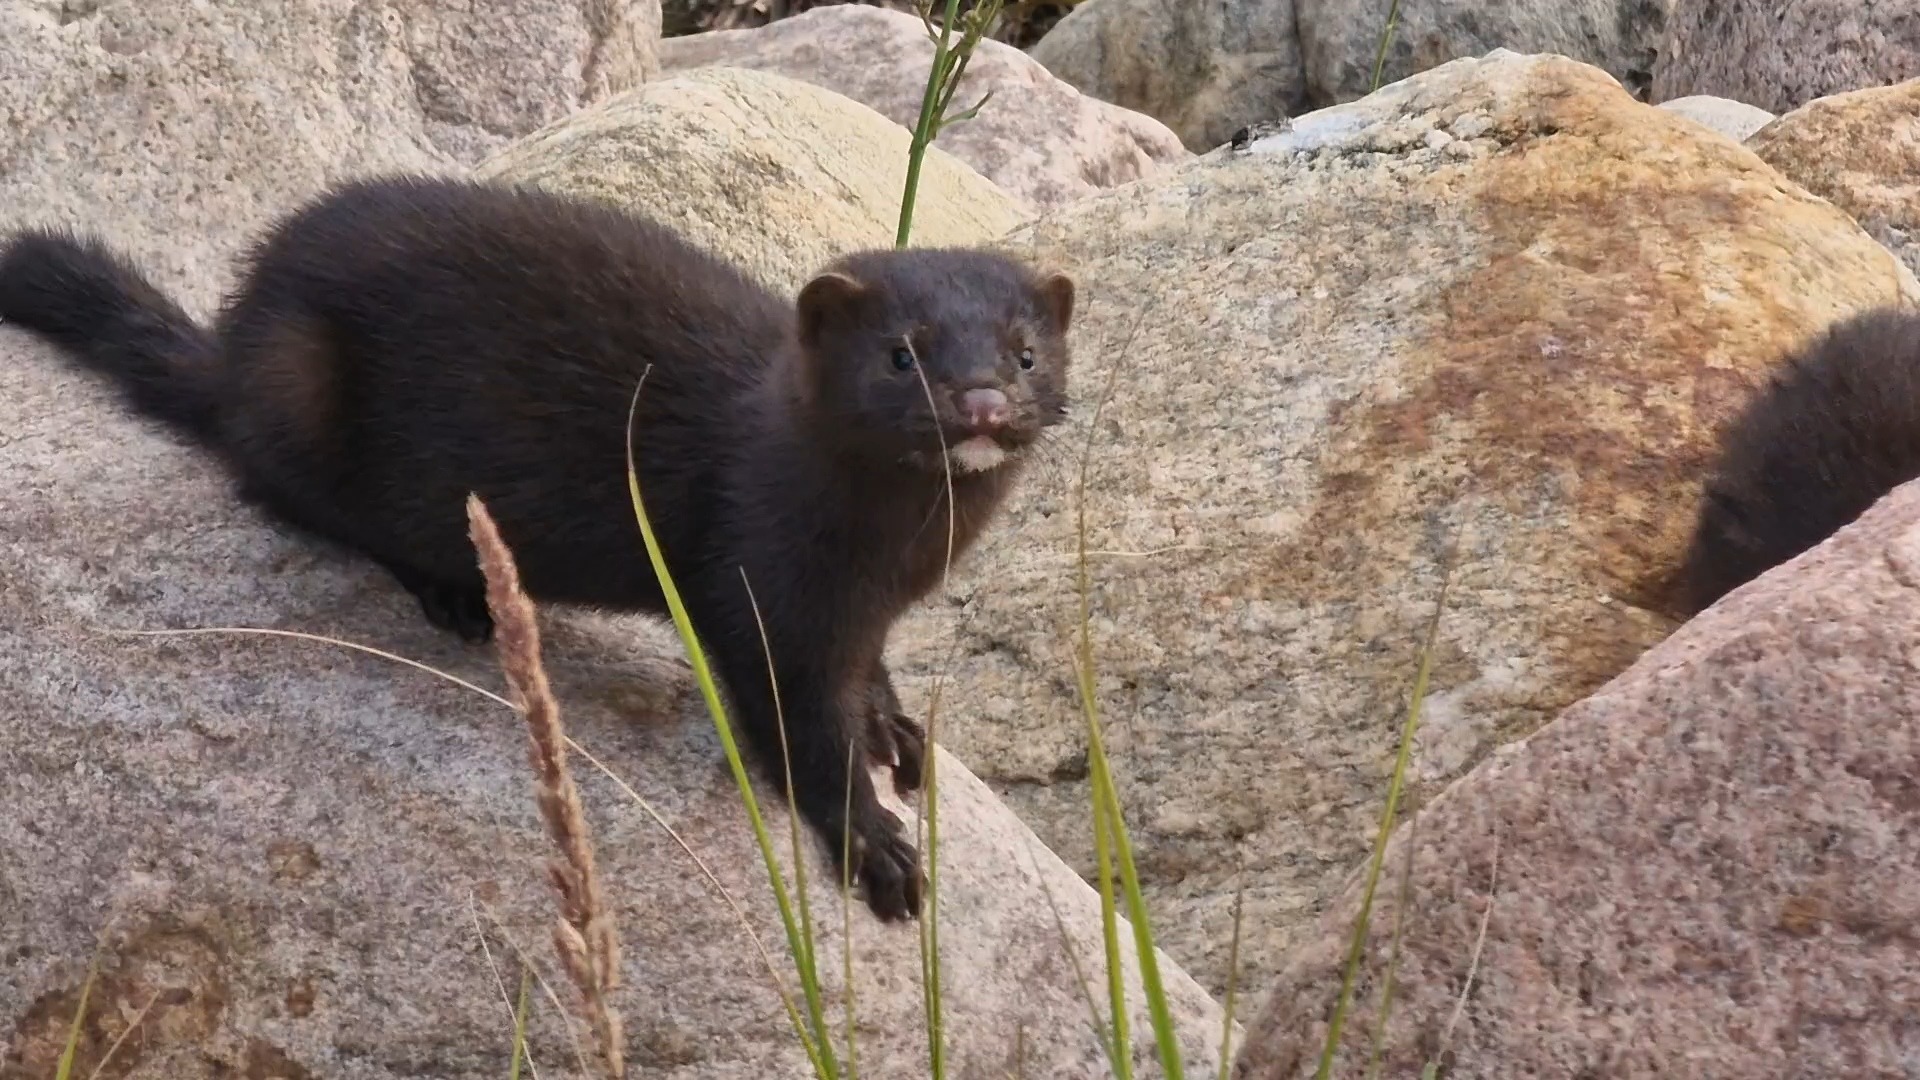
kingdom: Animalia
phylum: Chordata
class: Mammalia
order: Carnivora
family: Mustelidae
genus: Mustela
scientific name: Mustela vison
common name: Mink
